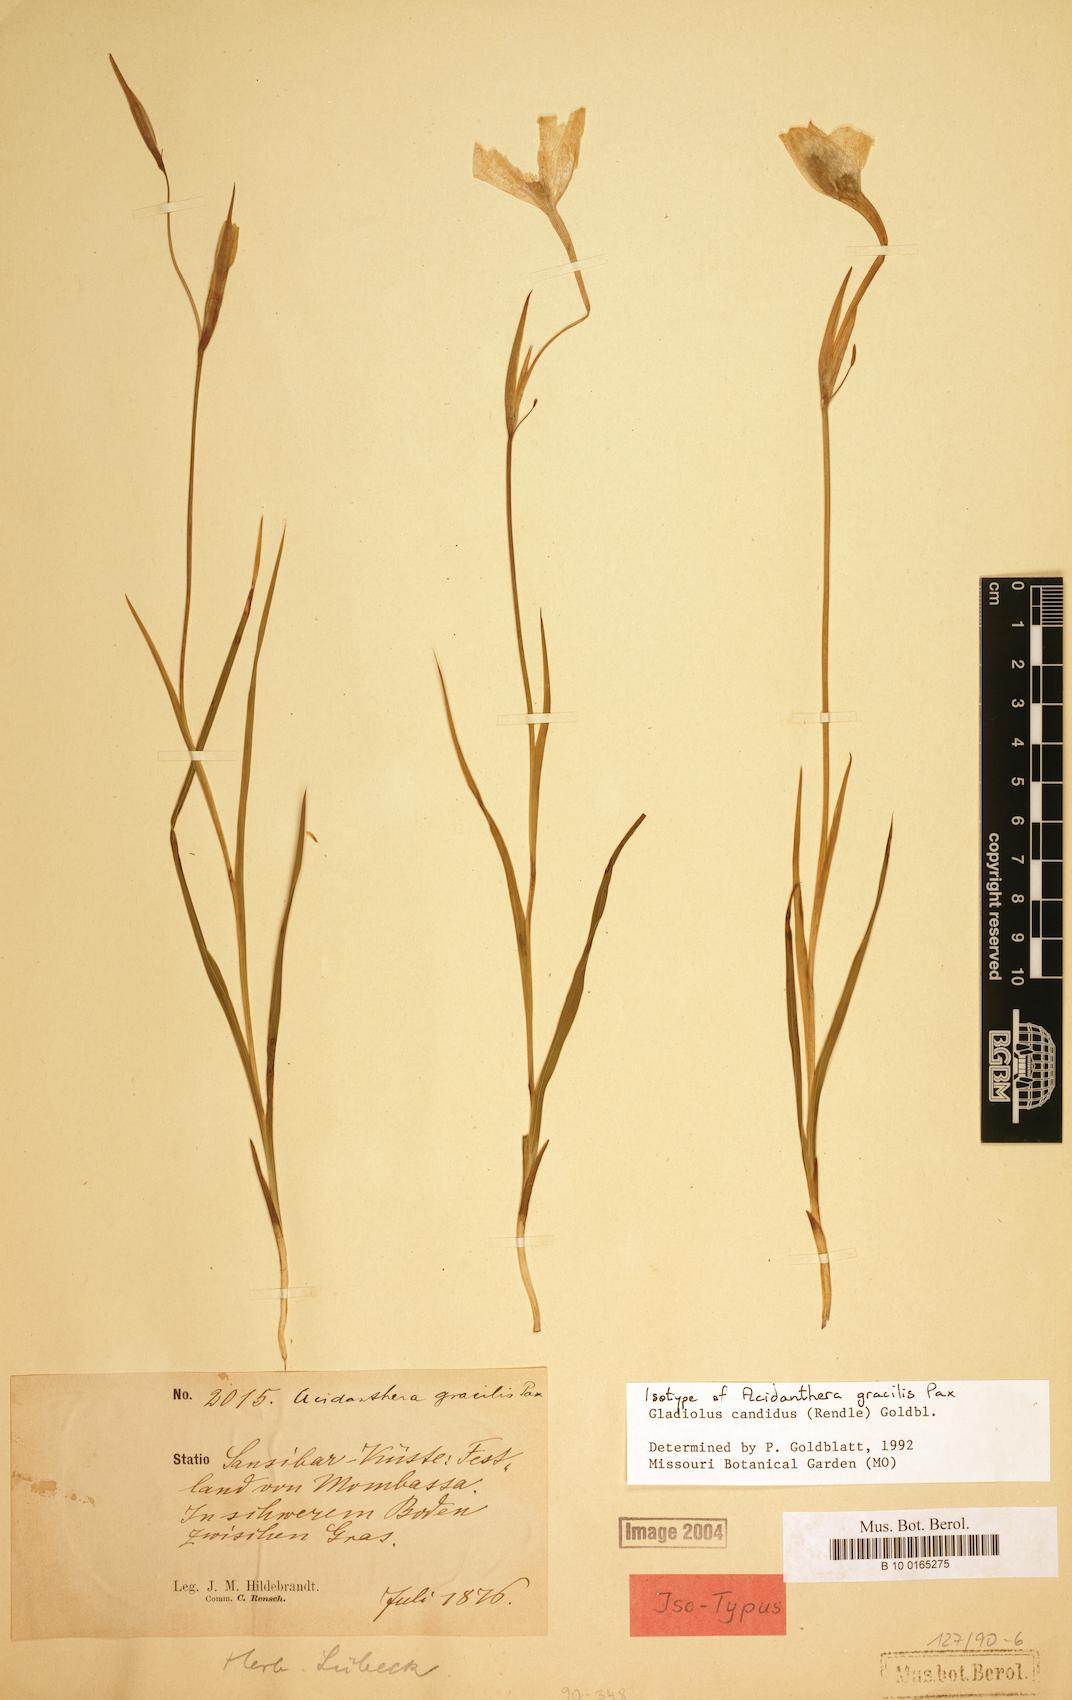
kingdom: Plantae
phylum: Tracheophyta
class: Liliopsida
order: Asparagales
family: Iridaceae
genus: Gladiolus
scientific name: Gladiolus candidus
